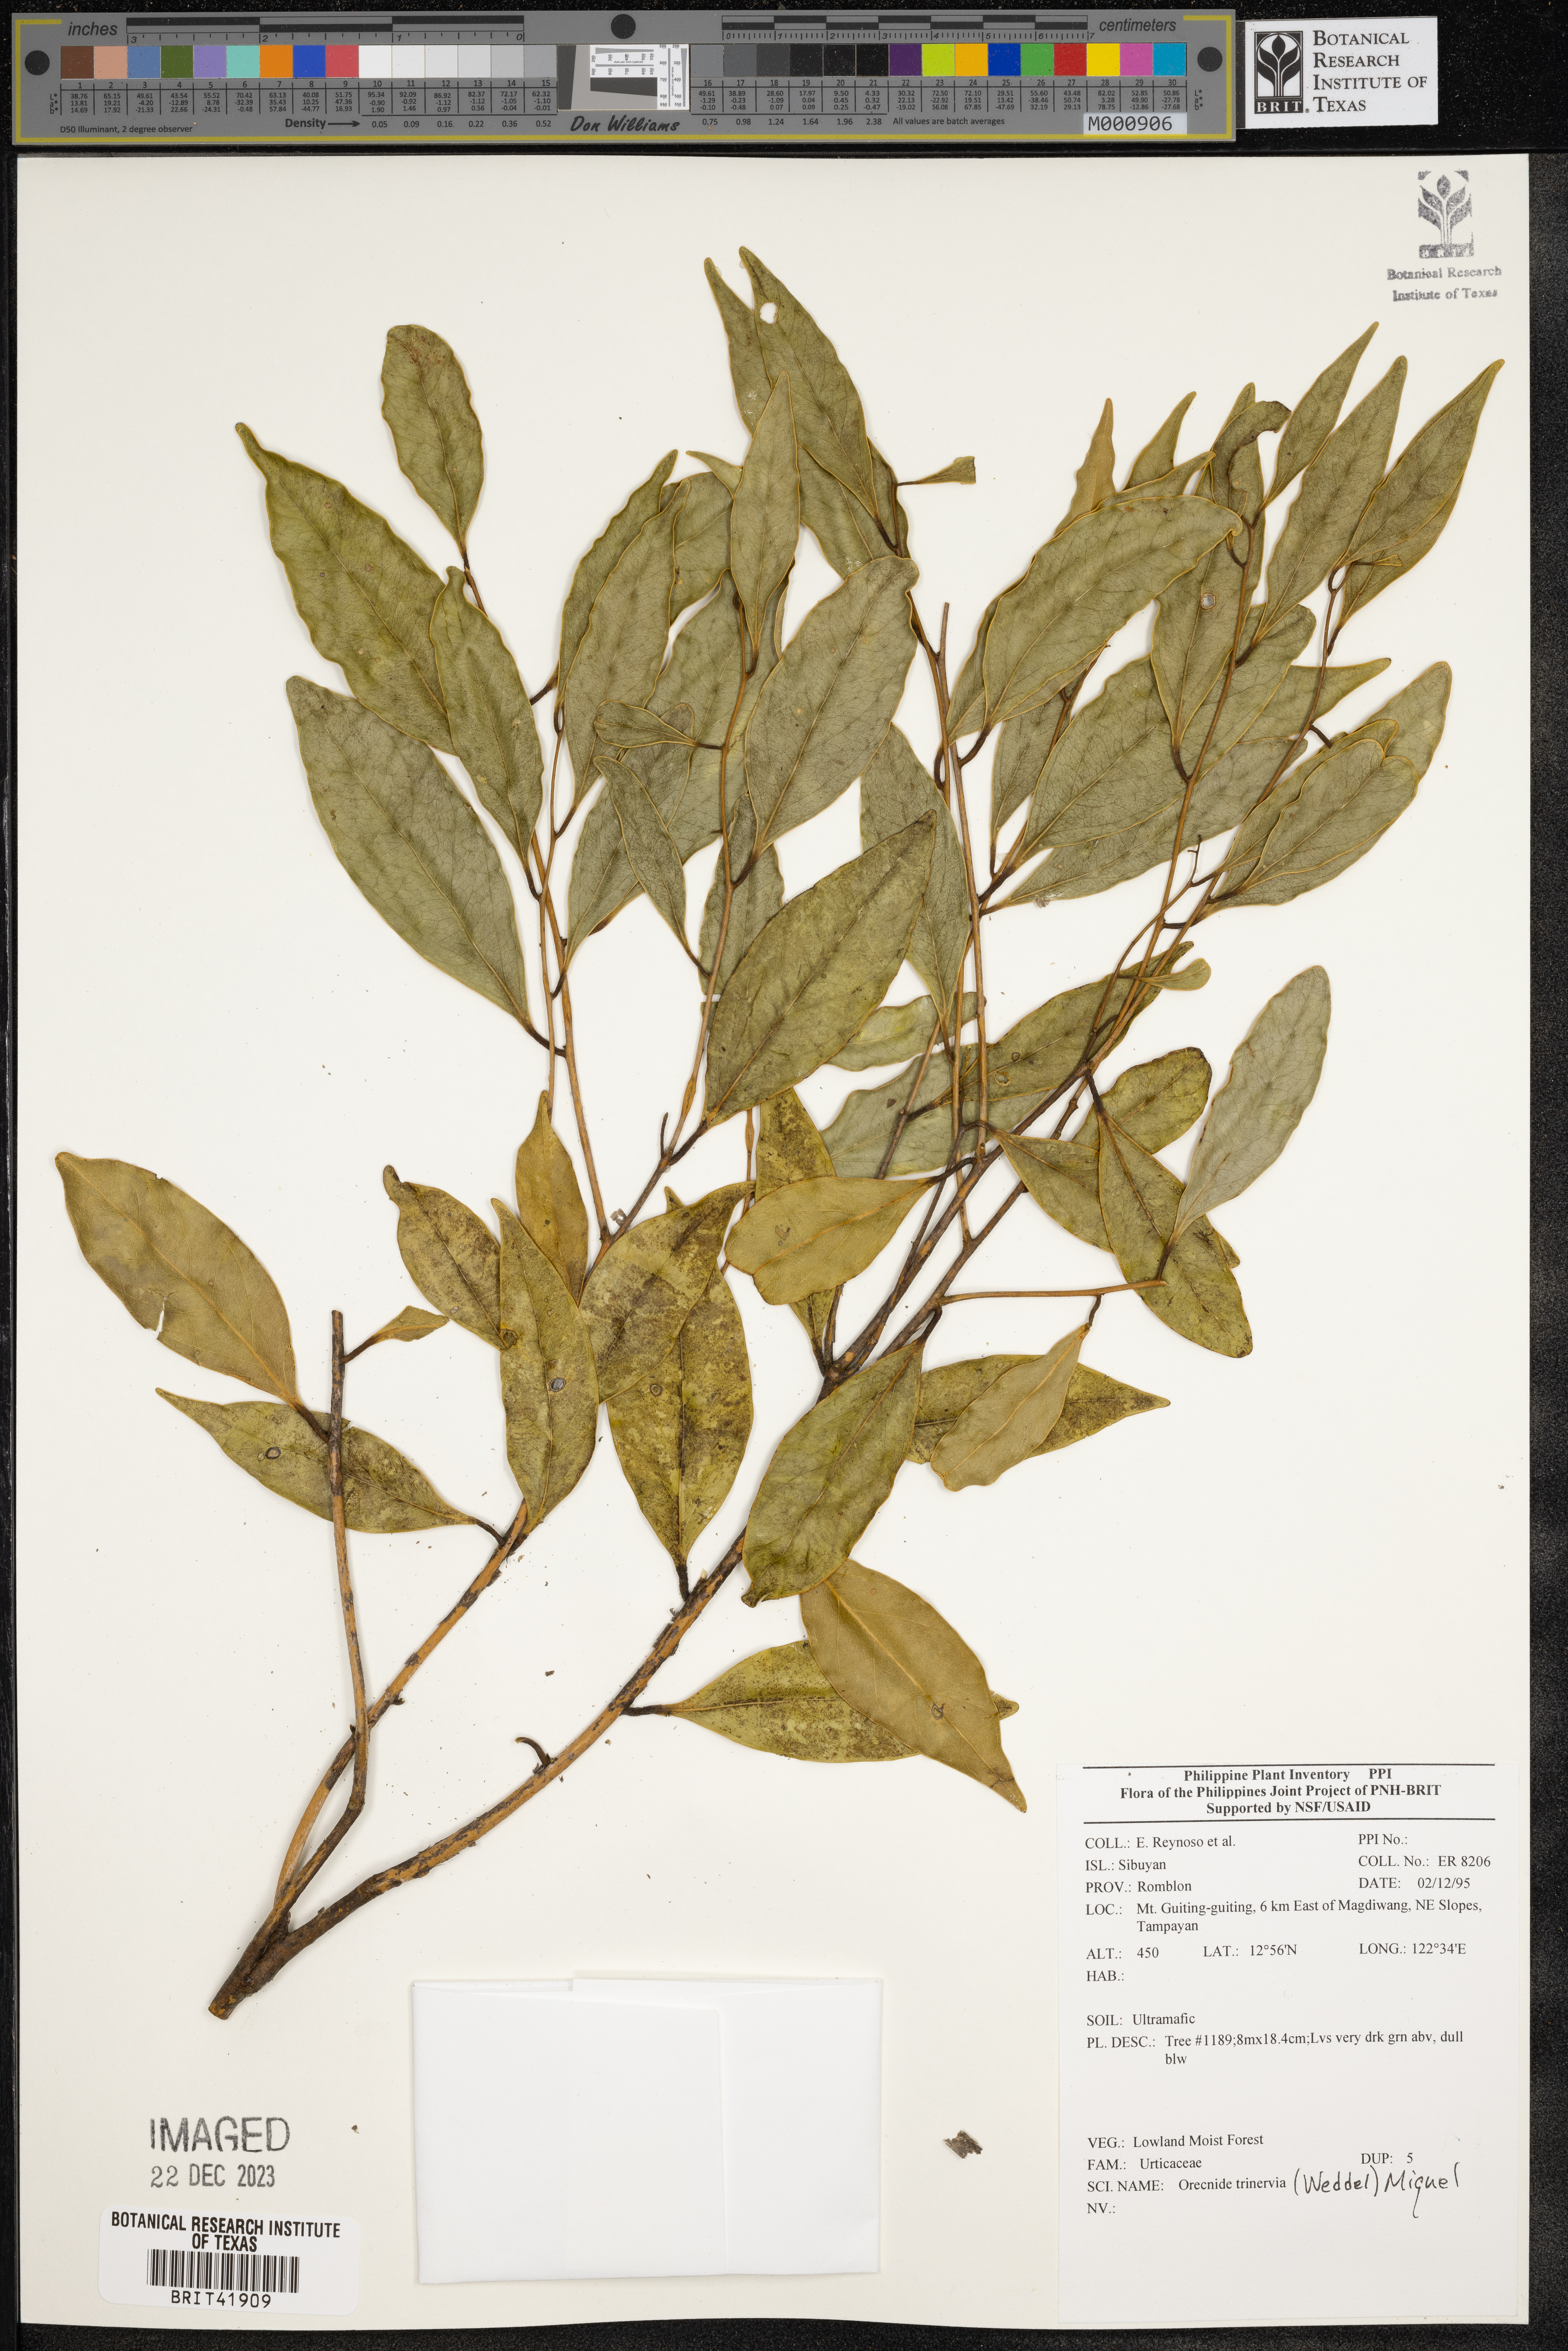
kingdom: Plantae
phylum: Tracheophyta
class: Magnoliopsida
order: Rosales
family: Urticaceae
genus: Oreocnide
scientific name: Oreocnide
